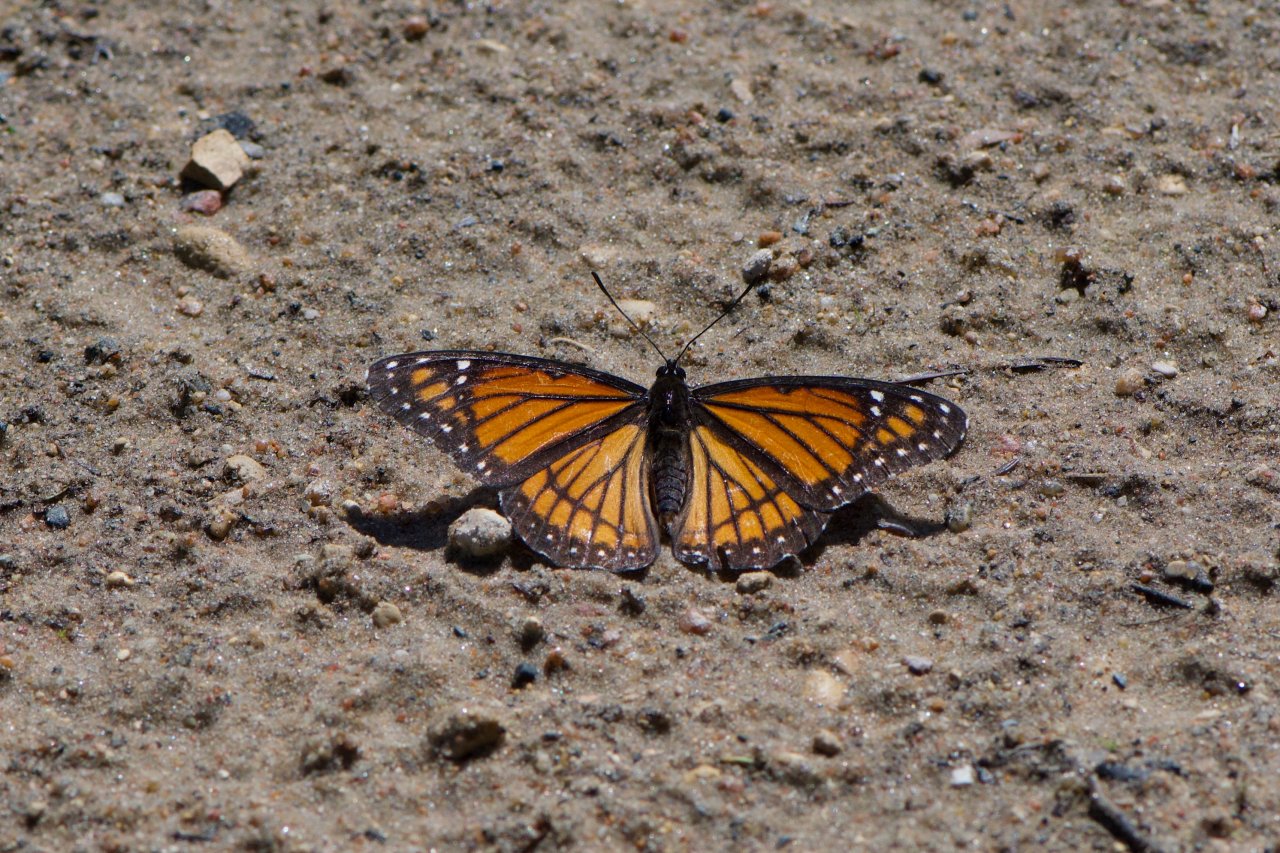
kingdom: Animalia
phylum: Arthropoda
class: Insecta
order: Lepidoptera
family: Nymphalidae
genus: Limenitis
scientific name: Limenitis archippus
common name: Viceroy
